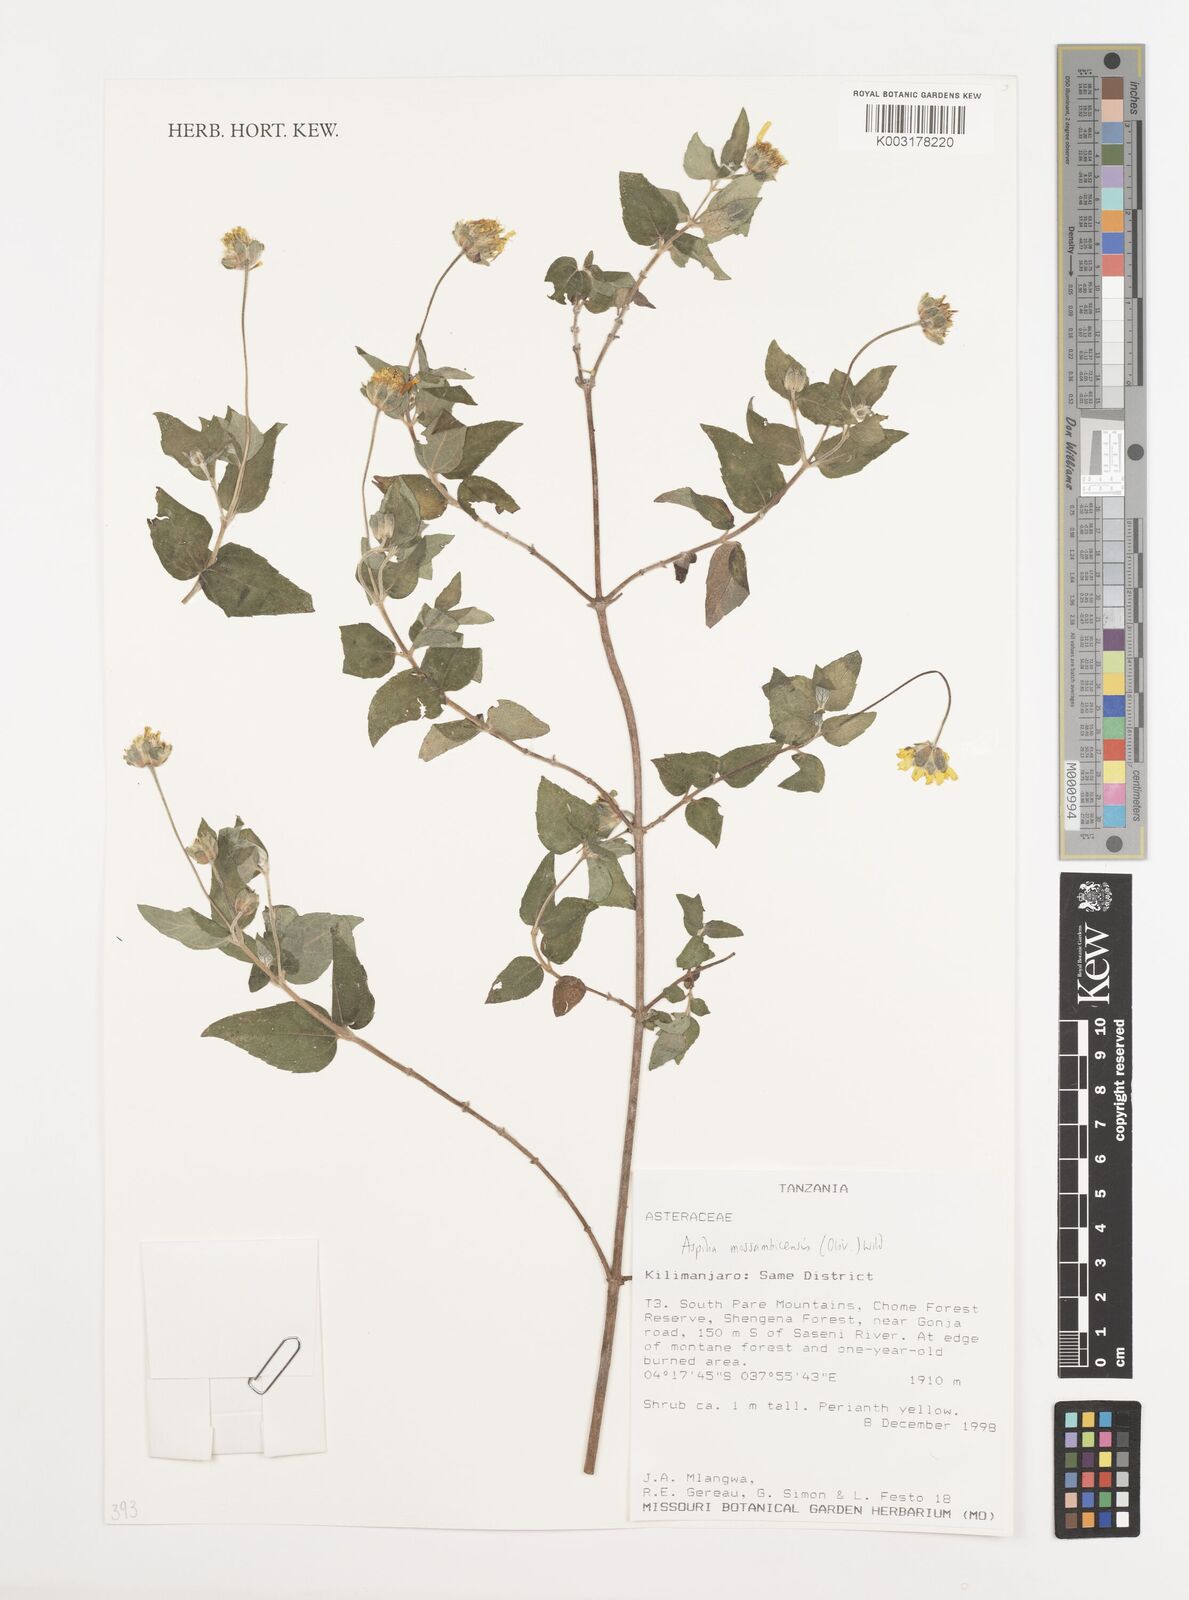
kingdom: Plantae
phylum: Tracheophyta
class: Magnoliopsida
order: Asterales
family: Asteraceae
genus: Aspilia
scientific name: Aspilia mossambicensis
